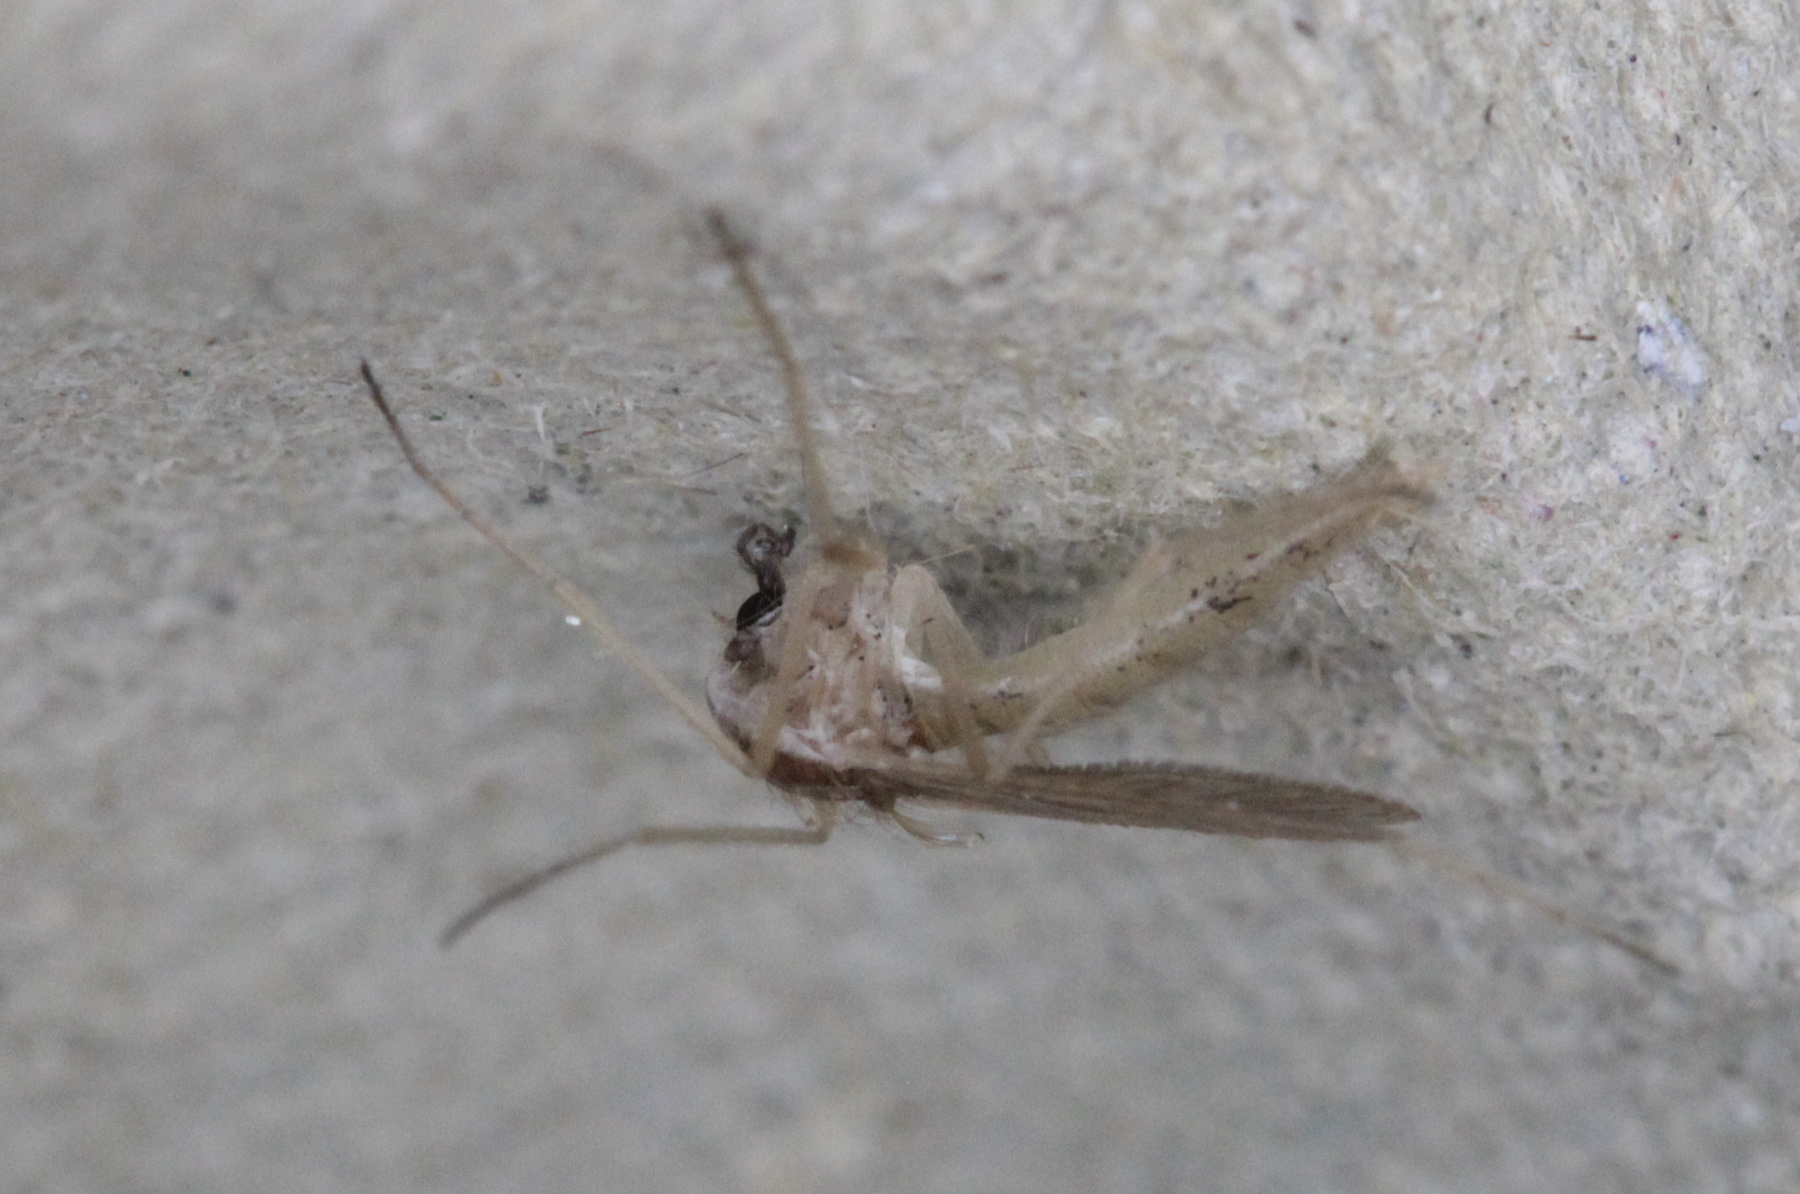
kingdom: Animalia
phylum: Arthropoda
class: Insecta
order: Diptera
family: Chaoboridae
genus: Chaoborus
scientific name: Chaoborus flavicans
